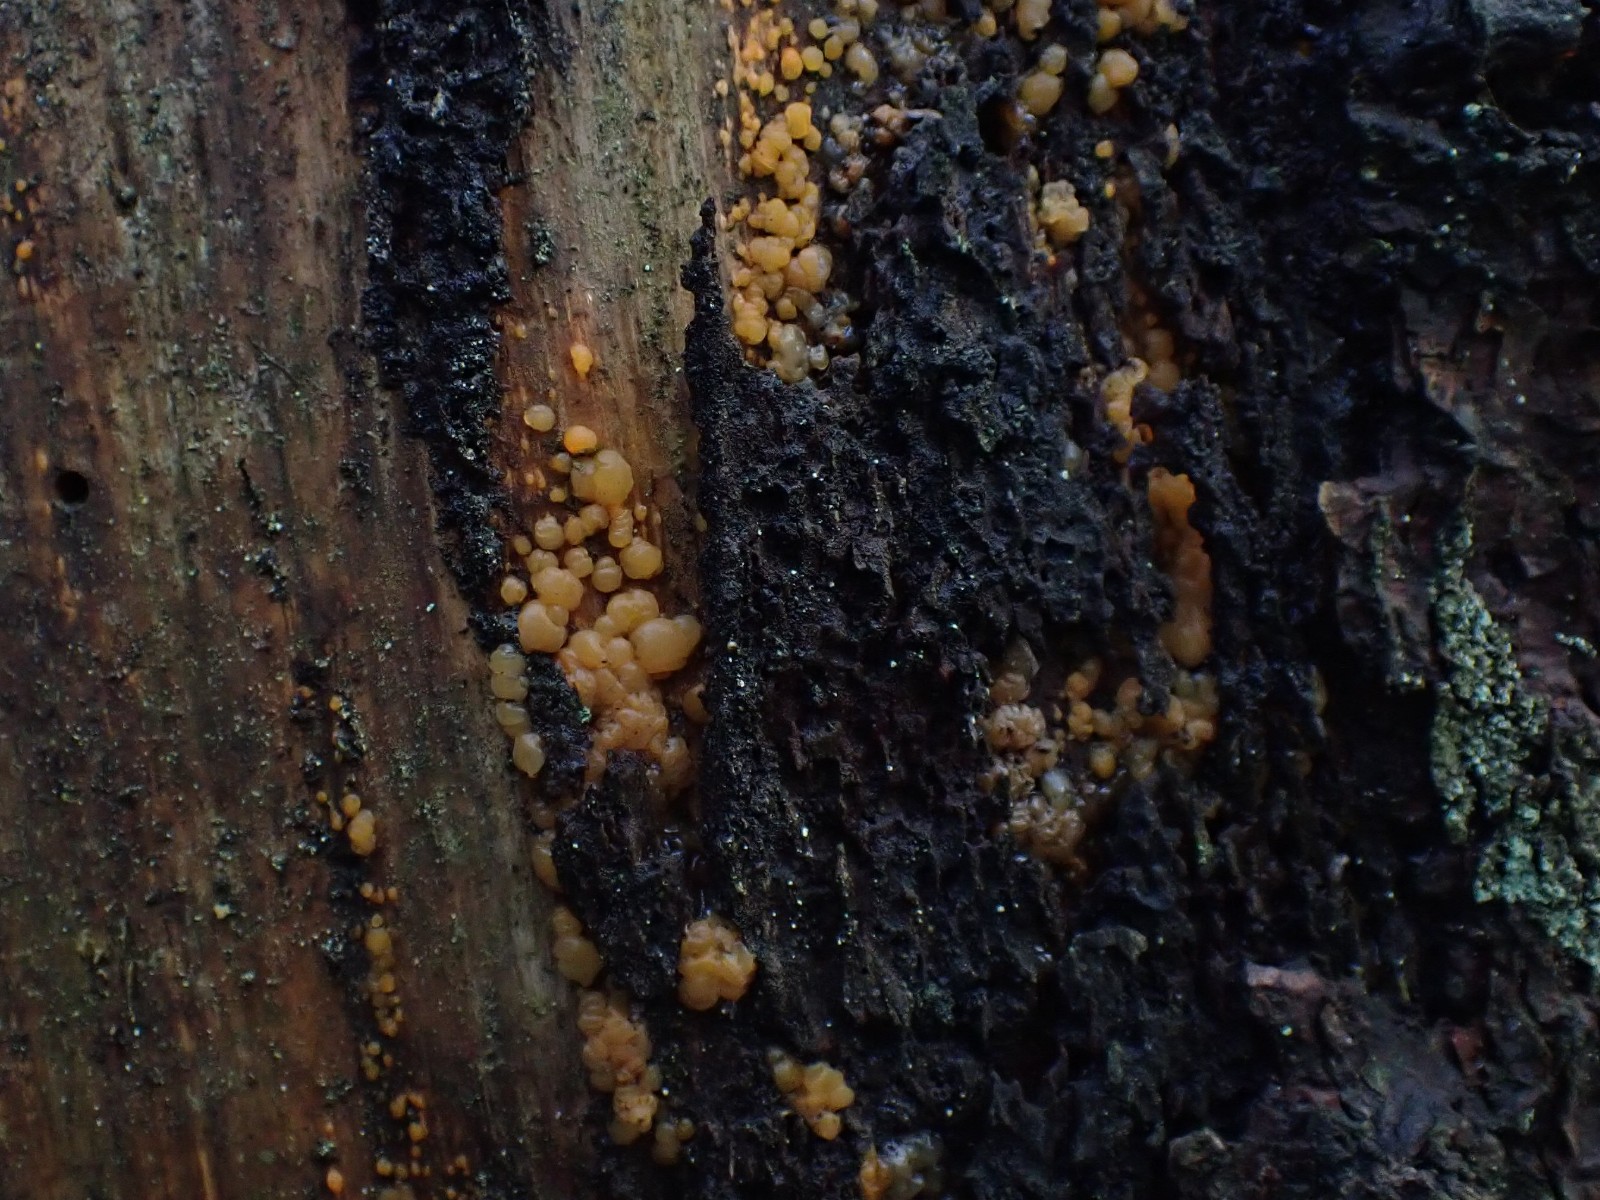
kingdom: Fungi
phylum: Basidiomycota
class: Dacrymycetes
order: Dacrymycetales
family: Dacrymycetaceae
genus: Dacrymyces
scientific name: Dacrymyces stillatus
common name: almindelig tåresvamp
